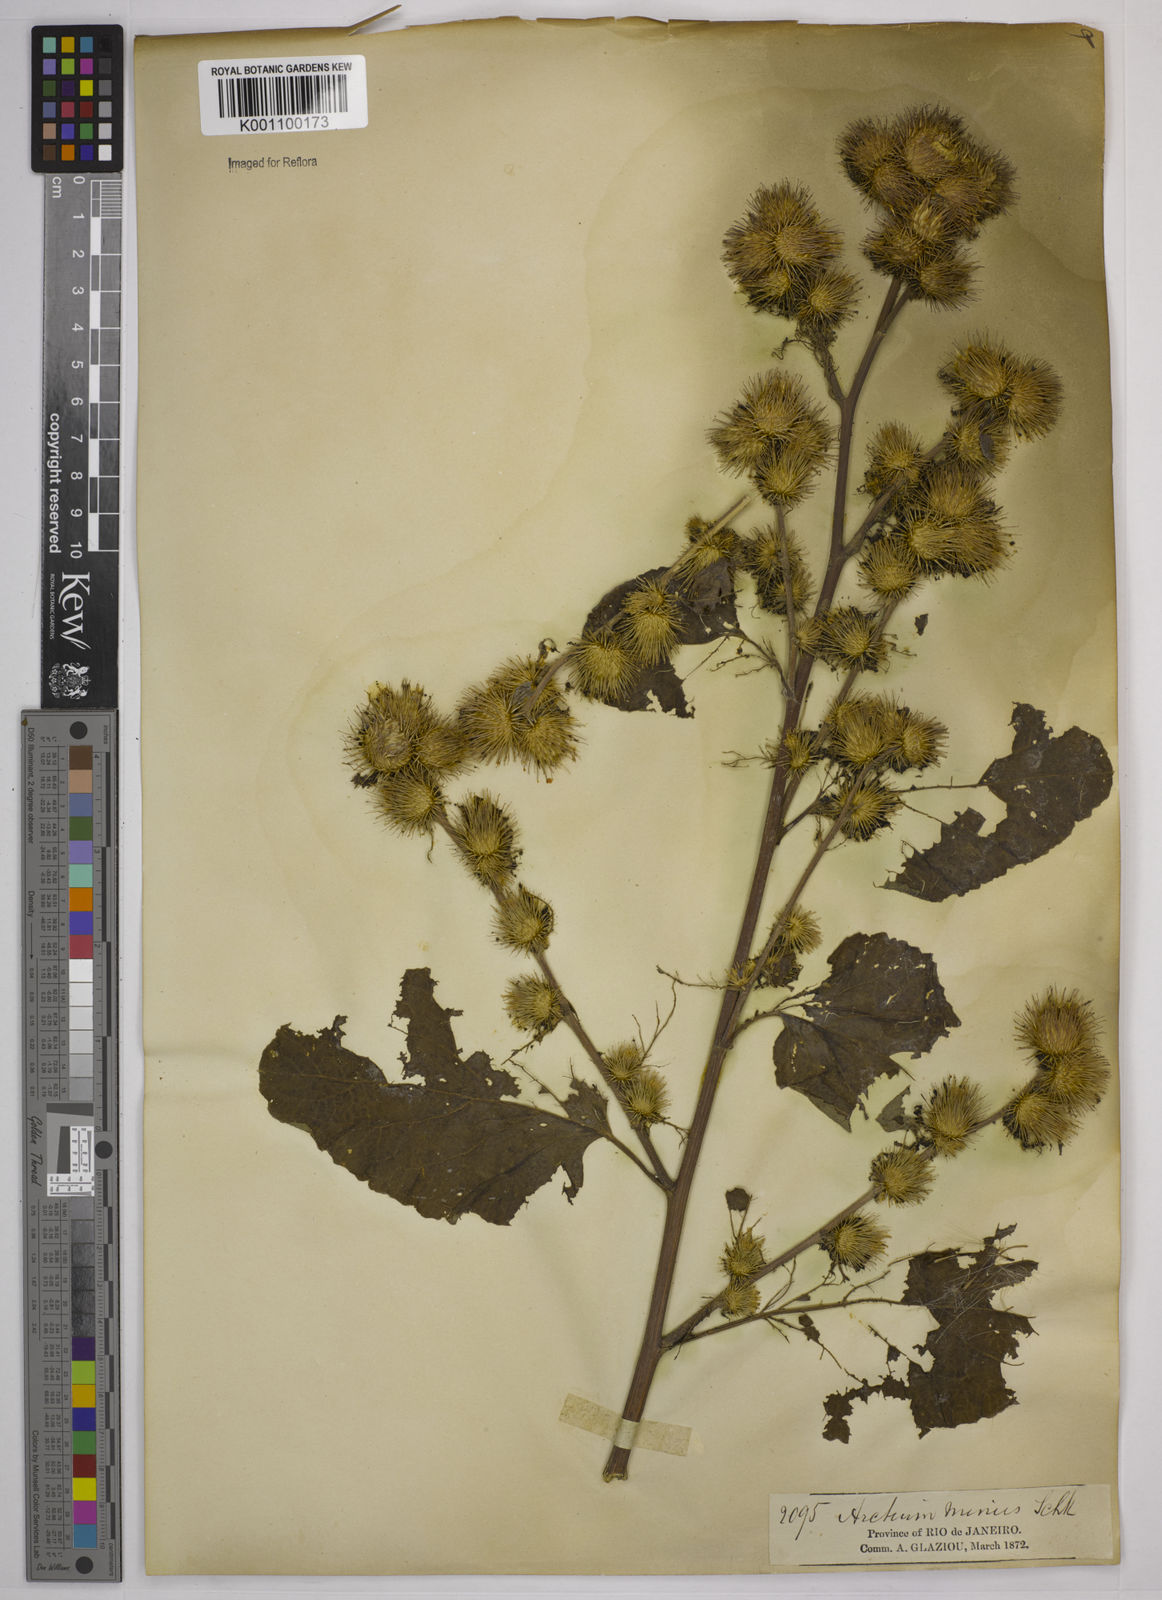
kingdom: Plantae
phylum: Tracheophyta
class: Magnoliopsida
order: Asterales
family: Asteraceae
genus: Arctium
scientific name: Arctium minus
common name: Lesser burdock
